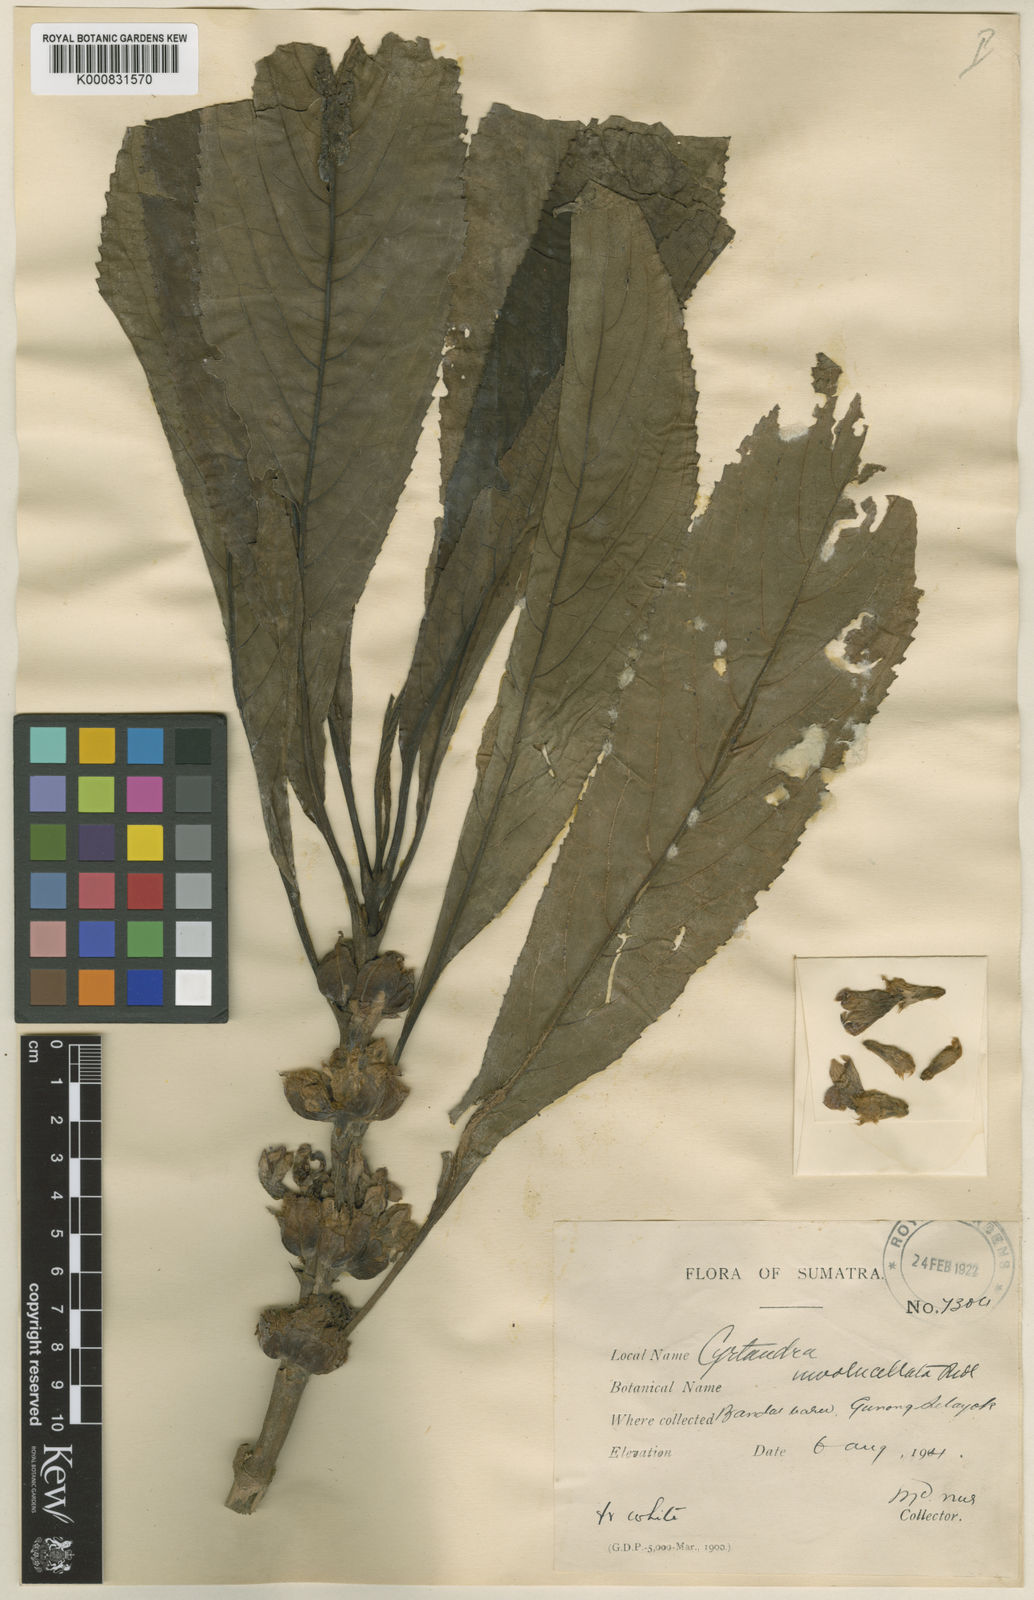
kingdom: Plantae
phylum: Tracheophyta
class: Magnoliopsida
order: Lamiales
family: Gesneriaceae
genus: Cyrtandra
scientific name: Cyrtandra
